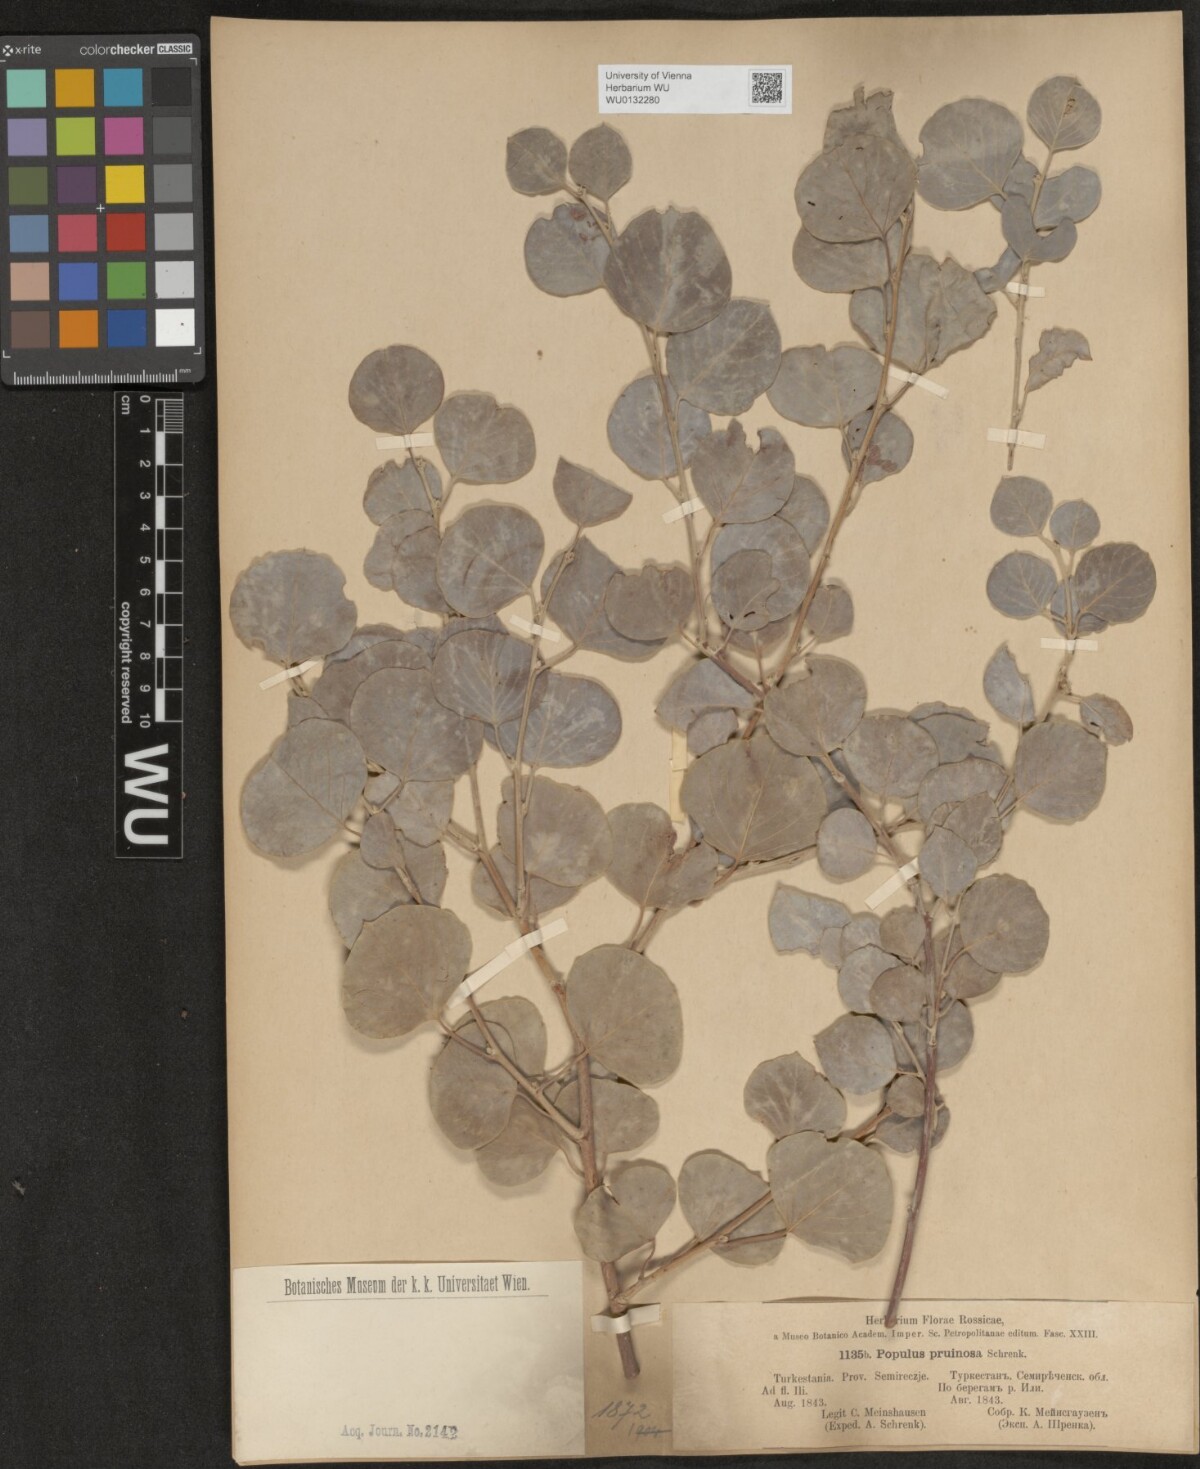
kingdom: Plantae
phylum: Tracheophyta
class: Magnoliopsida
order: Malpighiales
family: Salicaceae
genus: Populus
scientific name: Populus pruinosa
